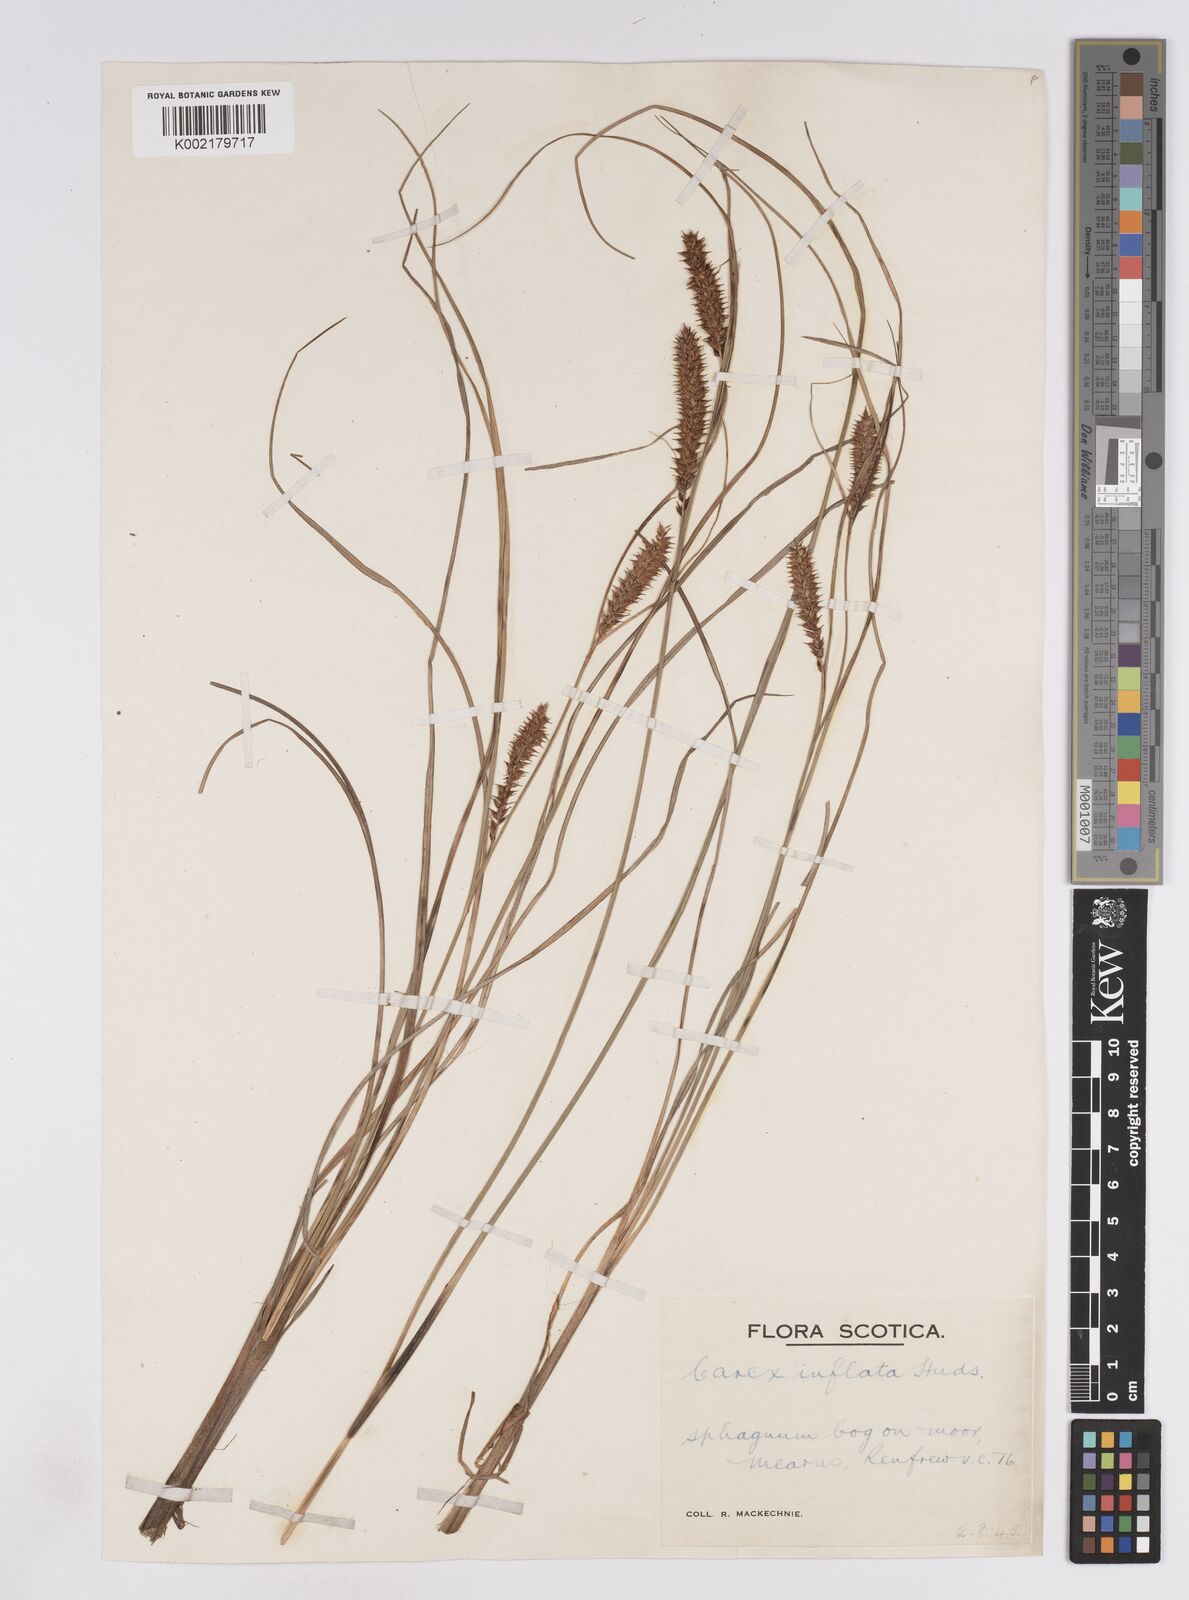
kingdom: Plantae
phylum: Tracheophyta
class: Liliopsida
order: Poales
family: Cyperaceae
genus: Carex
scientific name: Carex rostrata
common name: Bottle sedge
